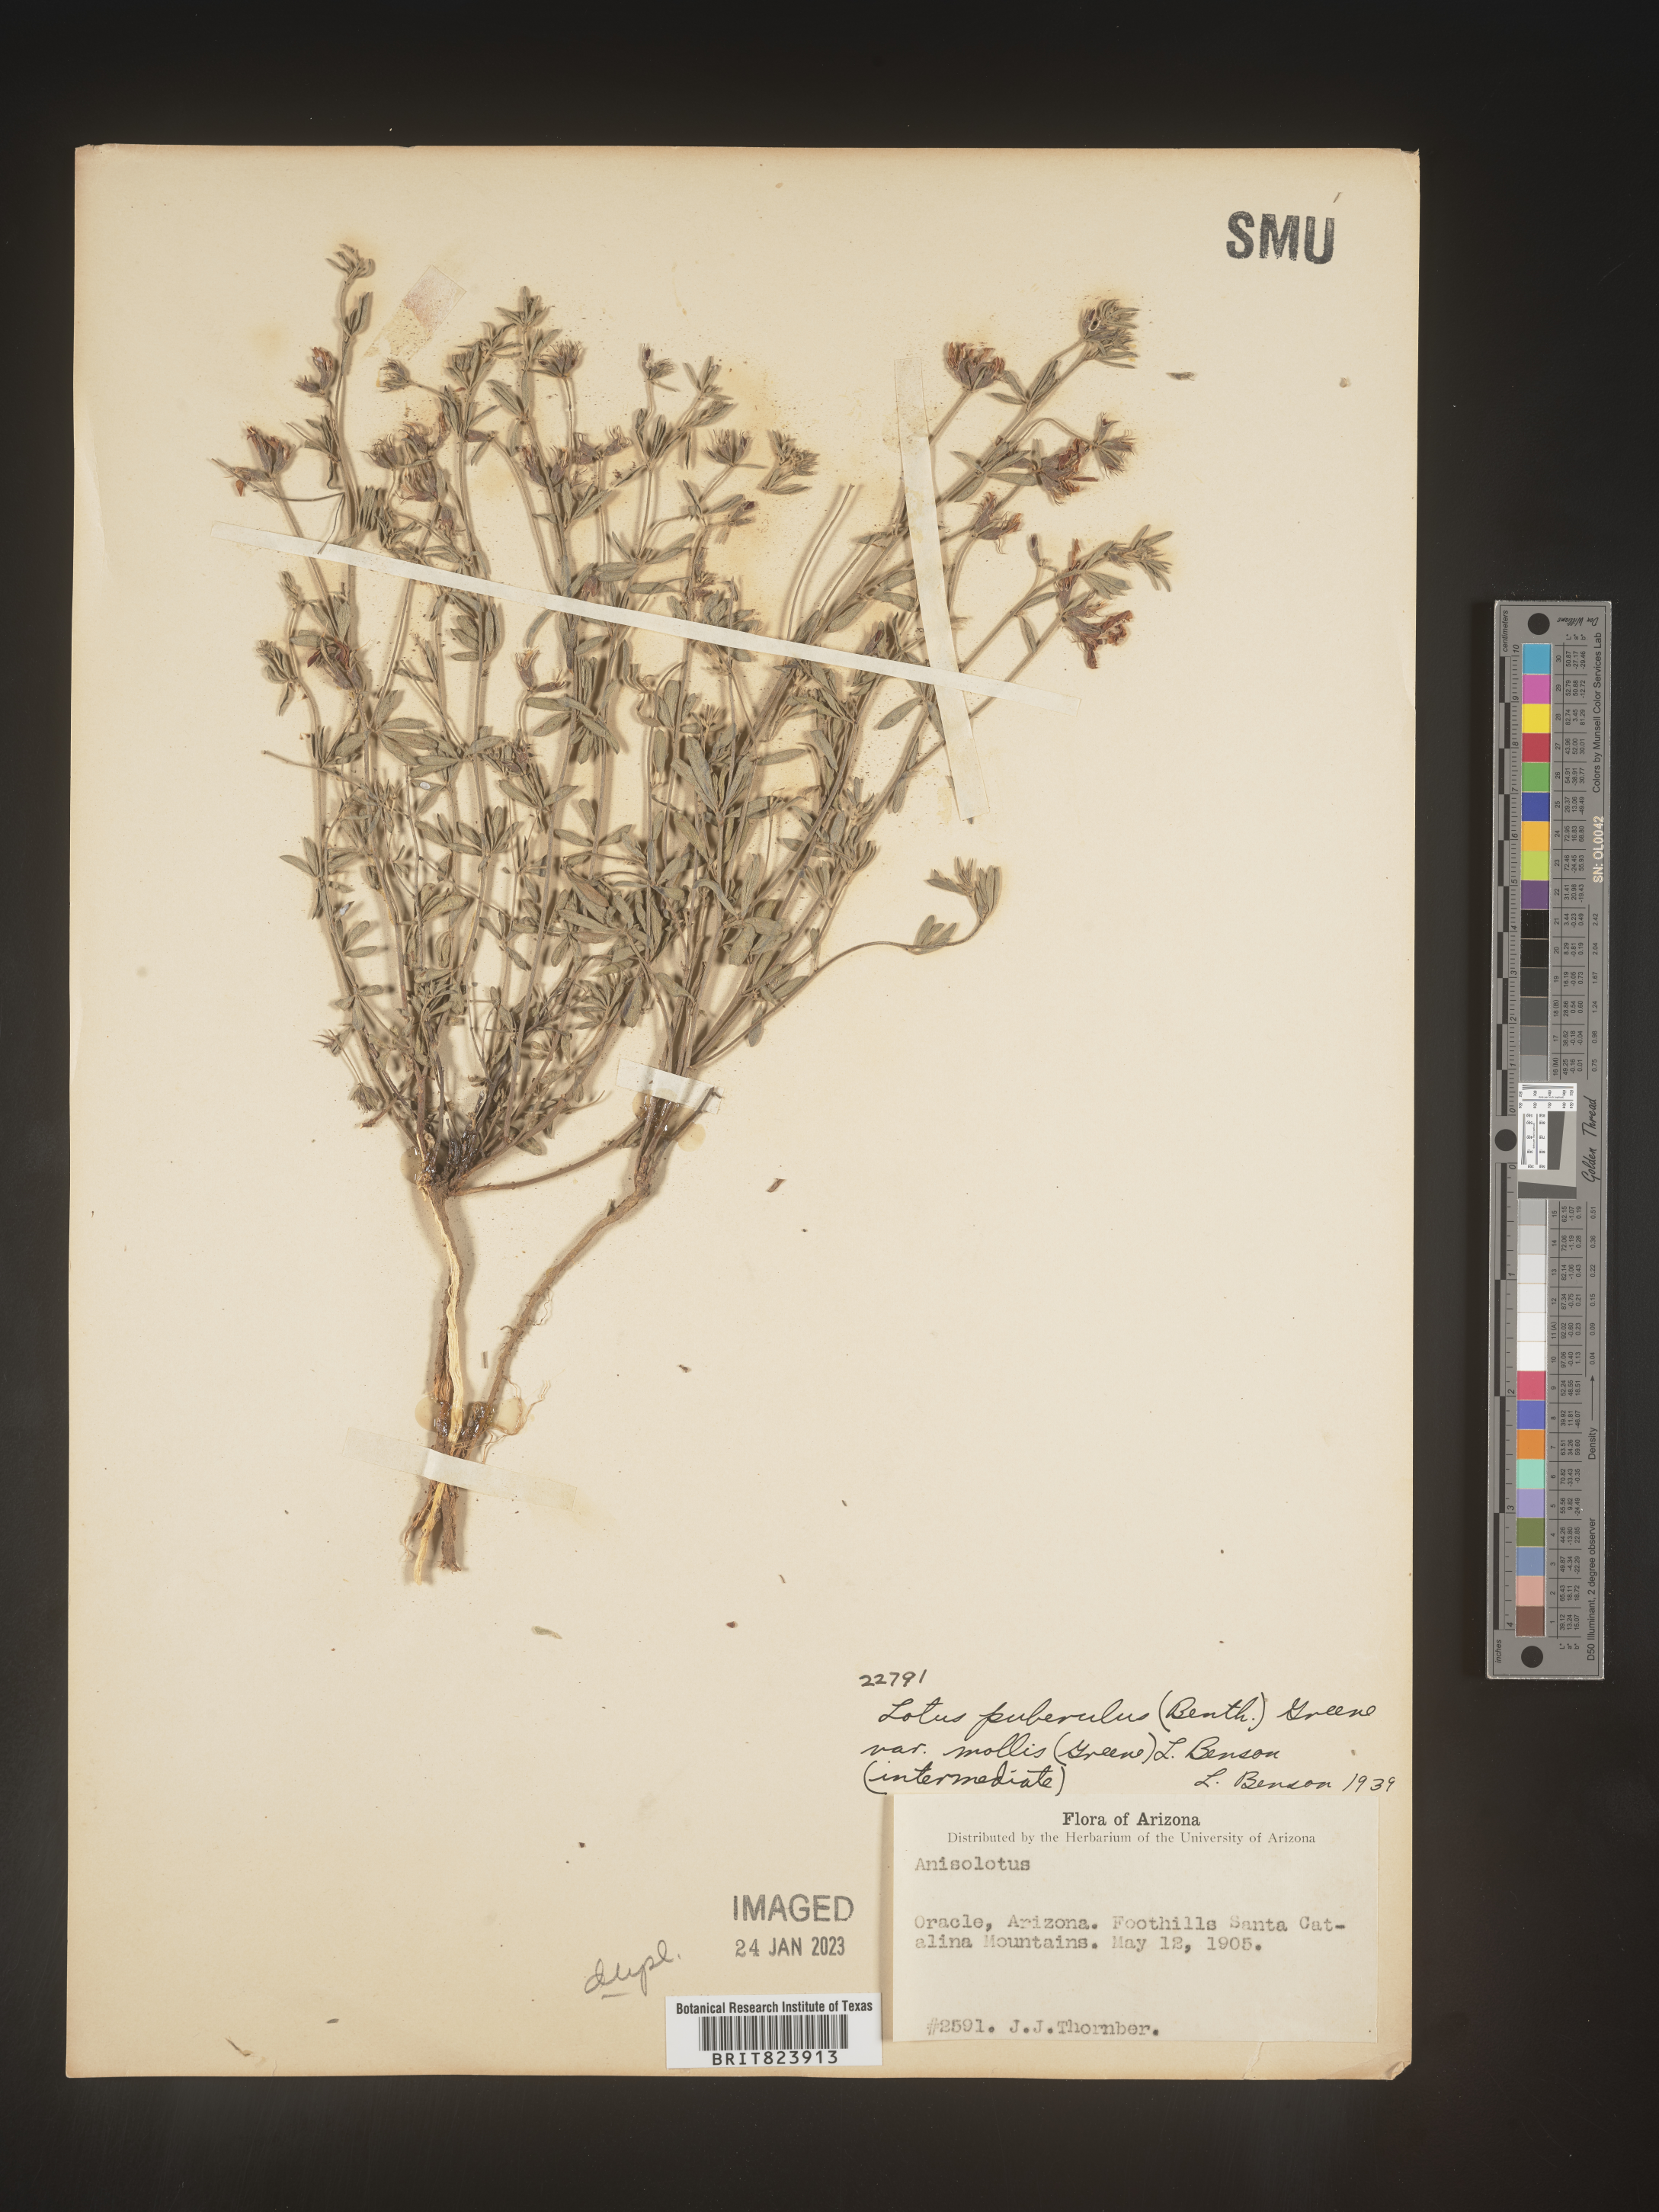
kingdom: Plantae
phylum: Tracheophyta
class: Magnoliopsida
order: Fabales
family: Fabaceae
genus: Lotus
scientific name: Lotus
